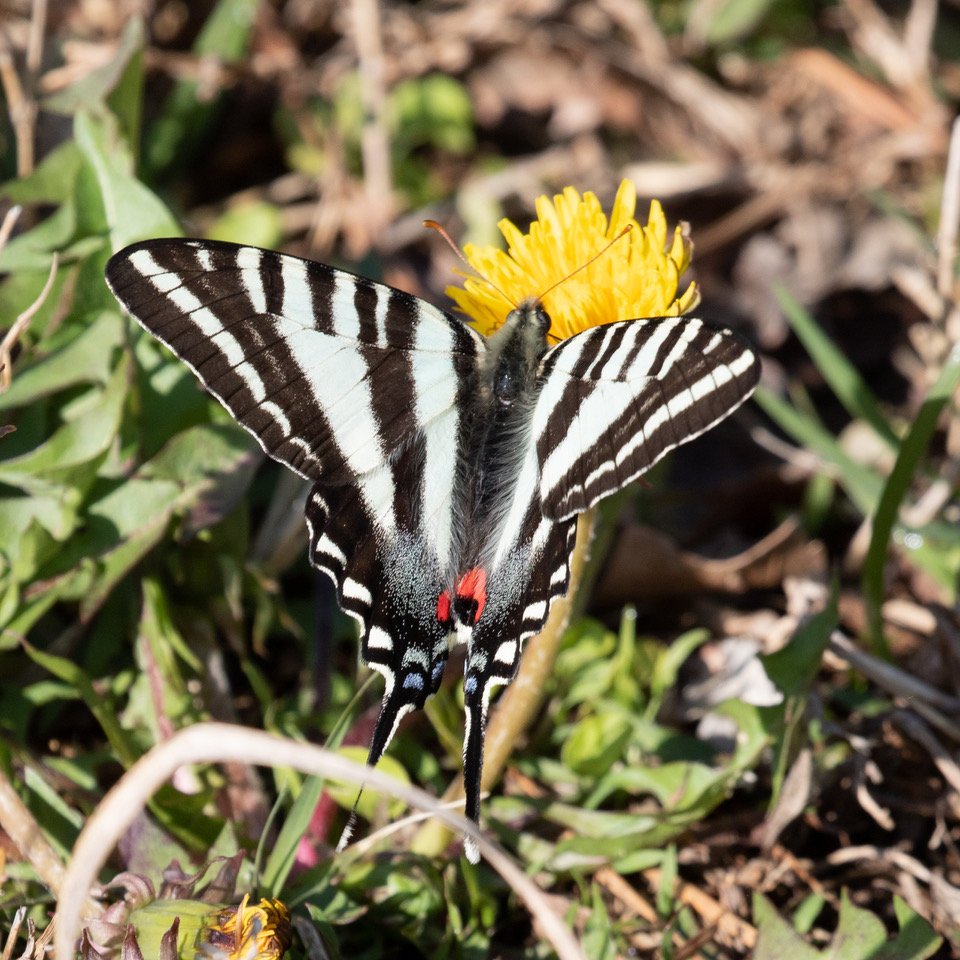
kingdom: Animalia
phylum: Arthropoda
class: Insecta
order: Lepidoptera
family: Papilionidae
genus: Protographium
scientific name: Protographium marcellus
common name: Zebra Swallowtail
